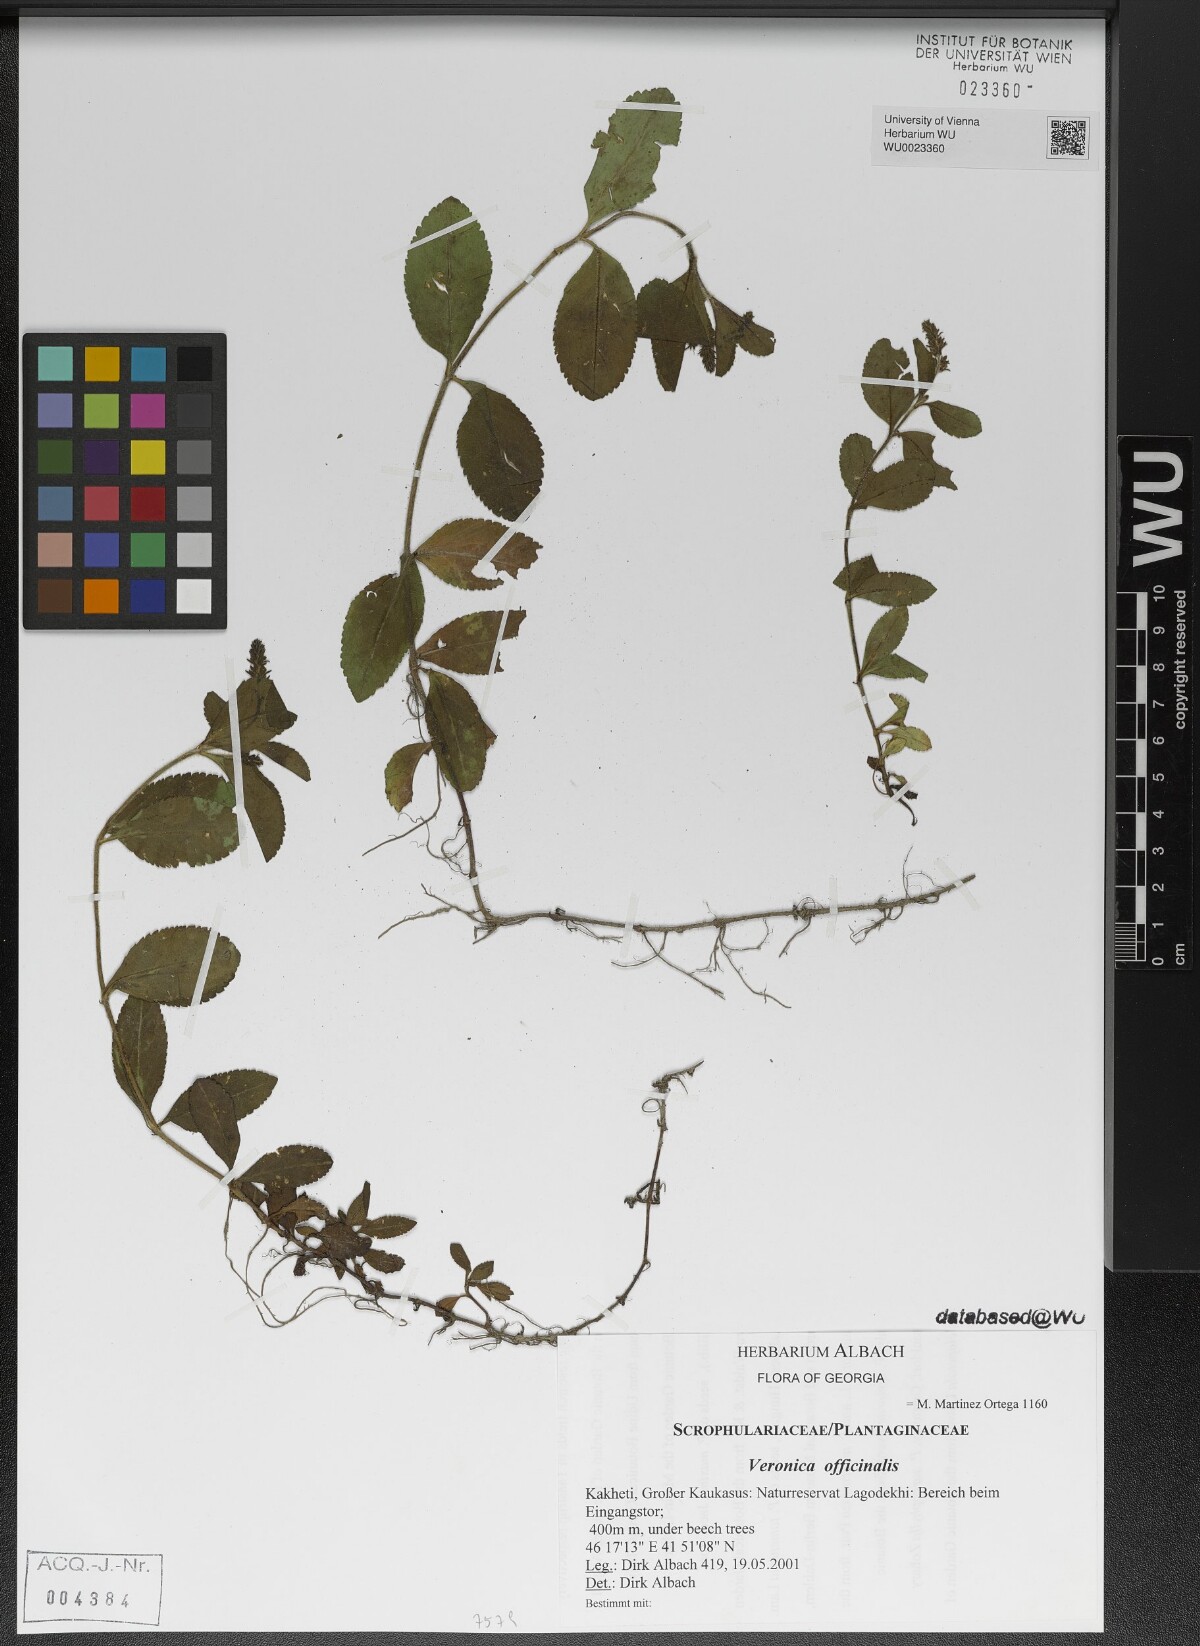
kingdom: Plantae
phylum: Tracheophyta
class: Magnoliopsida
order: Lamiales
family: Plantaginaceae
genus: Veronica
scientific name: Veronica officinalis
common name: Common speedwell
